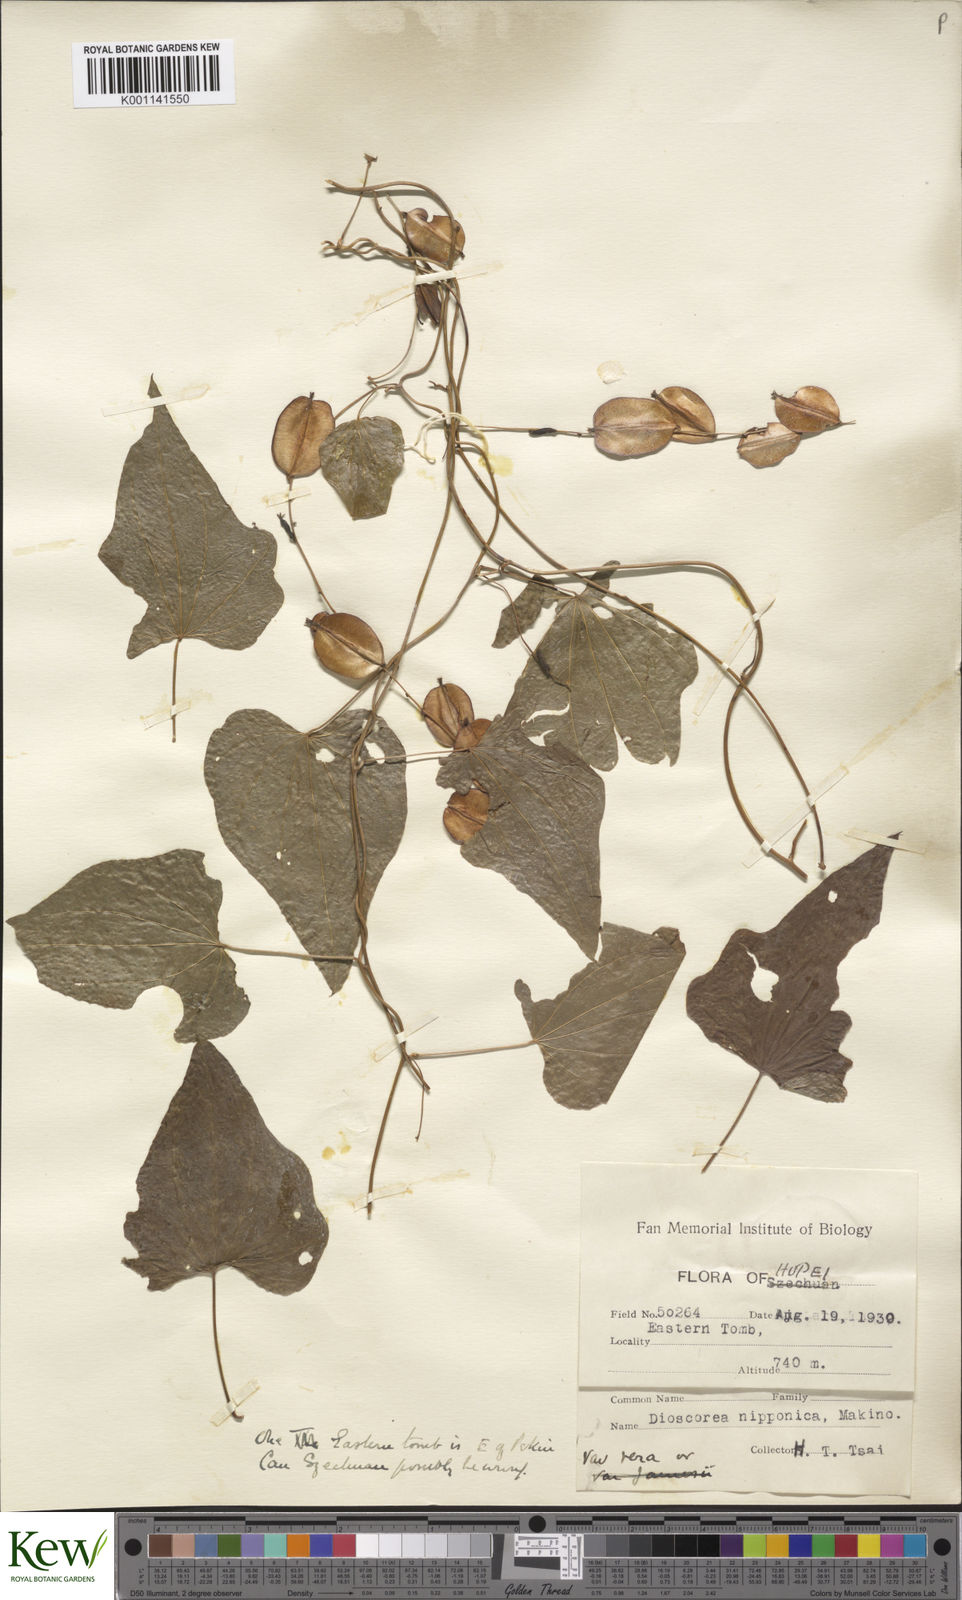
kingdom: Plantae
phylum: Tracheophyta
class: Liliopsida
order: Dioscoreales
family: Dioscoreaceae
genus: Dioscorea
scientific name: Dioscorea nipponica
